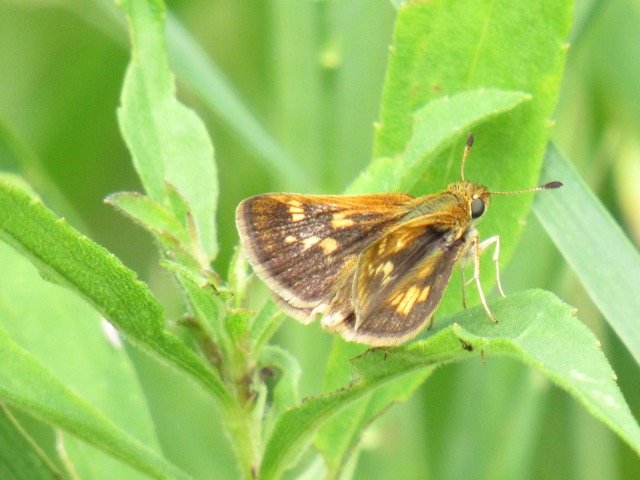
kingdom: Animalia
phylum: Arthropoda
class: Insecta
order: Lepidoptera
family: Hesperiidae
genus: Polites
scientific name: Polites coras
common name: Peck's Skipper
